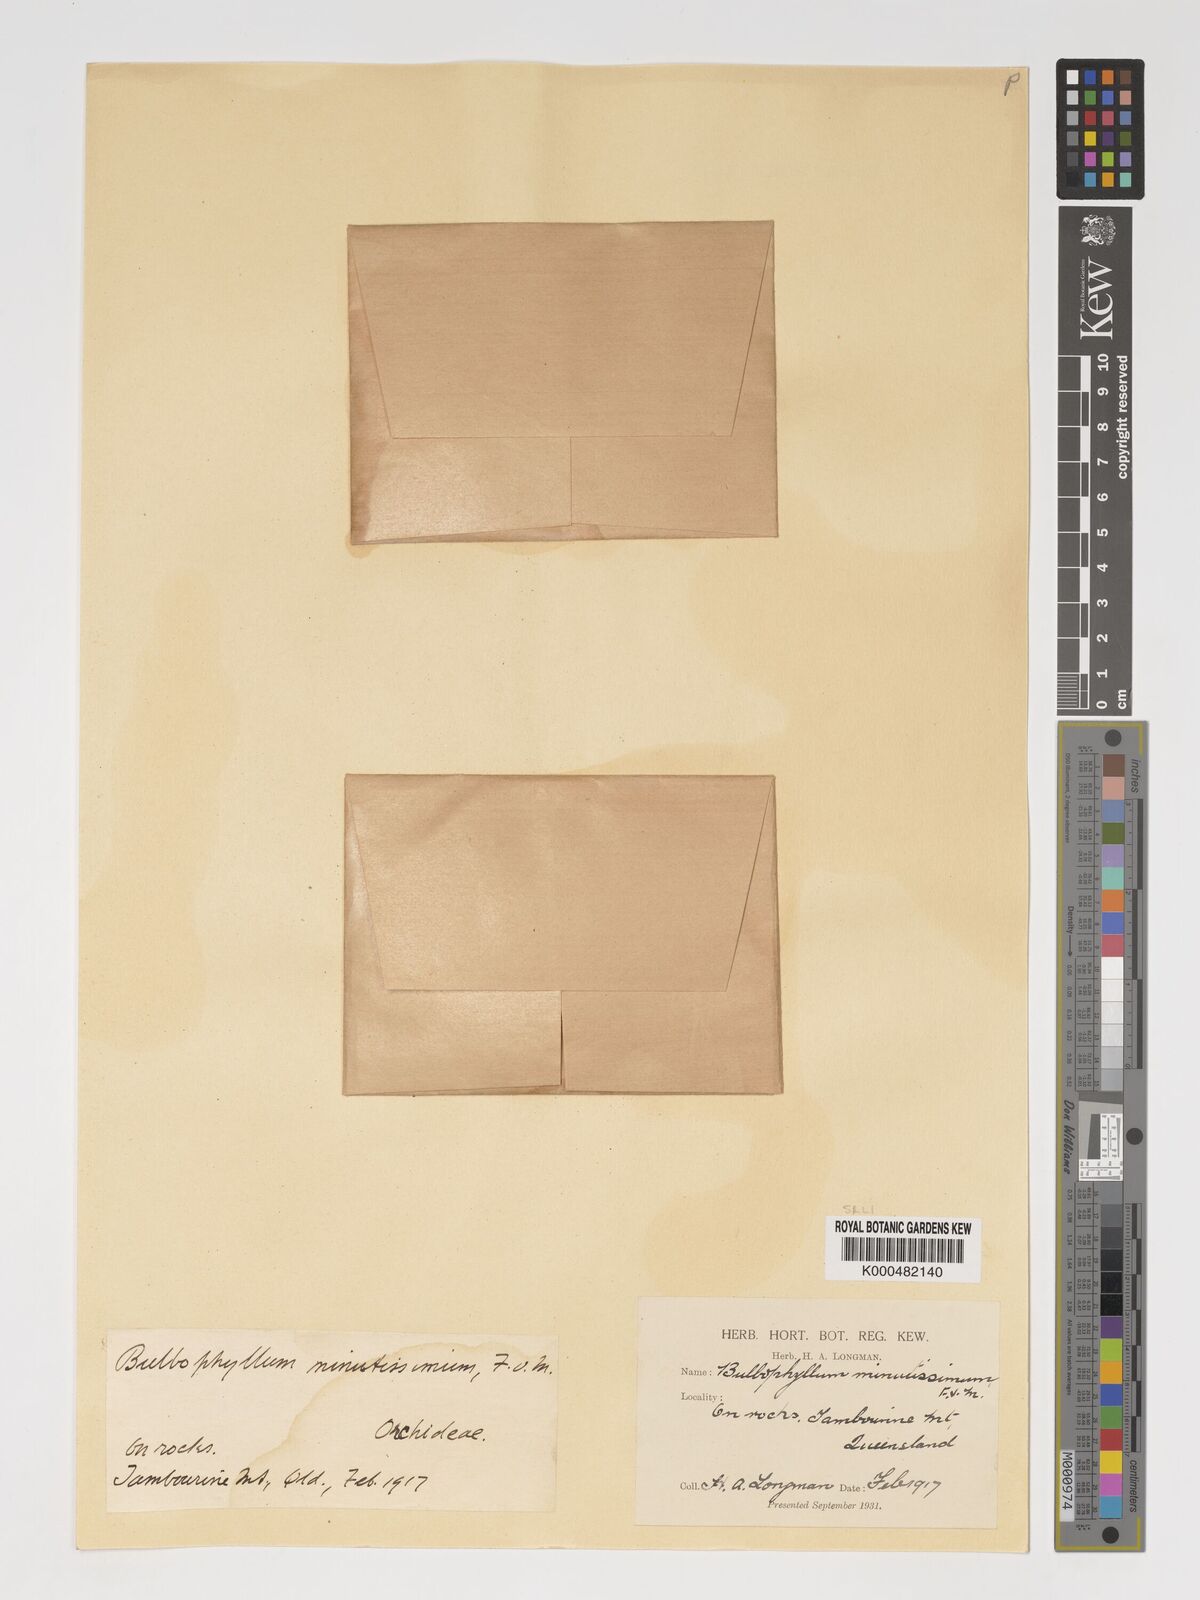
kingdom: Plantae
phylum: Tracheophyta
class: Liliopsida
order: Asparagales
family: Orchidaceae
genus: Bulbophyllum
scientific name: Bulbophyllum minutissimum
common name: Red bead orchid
